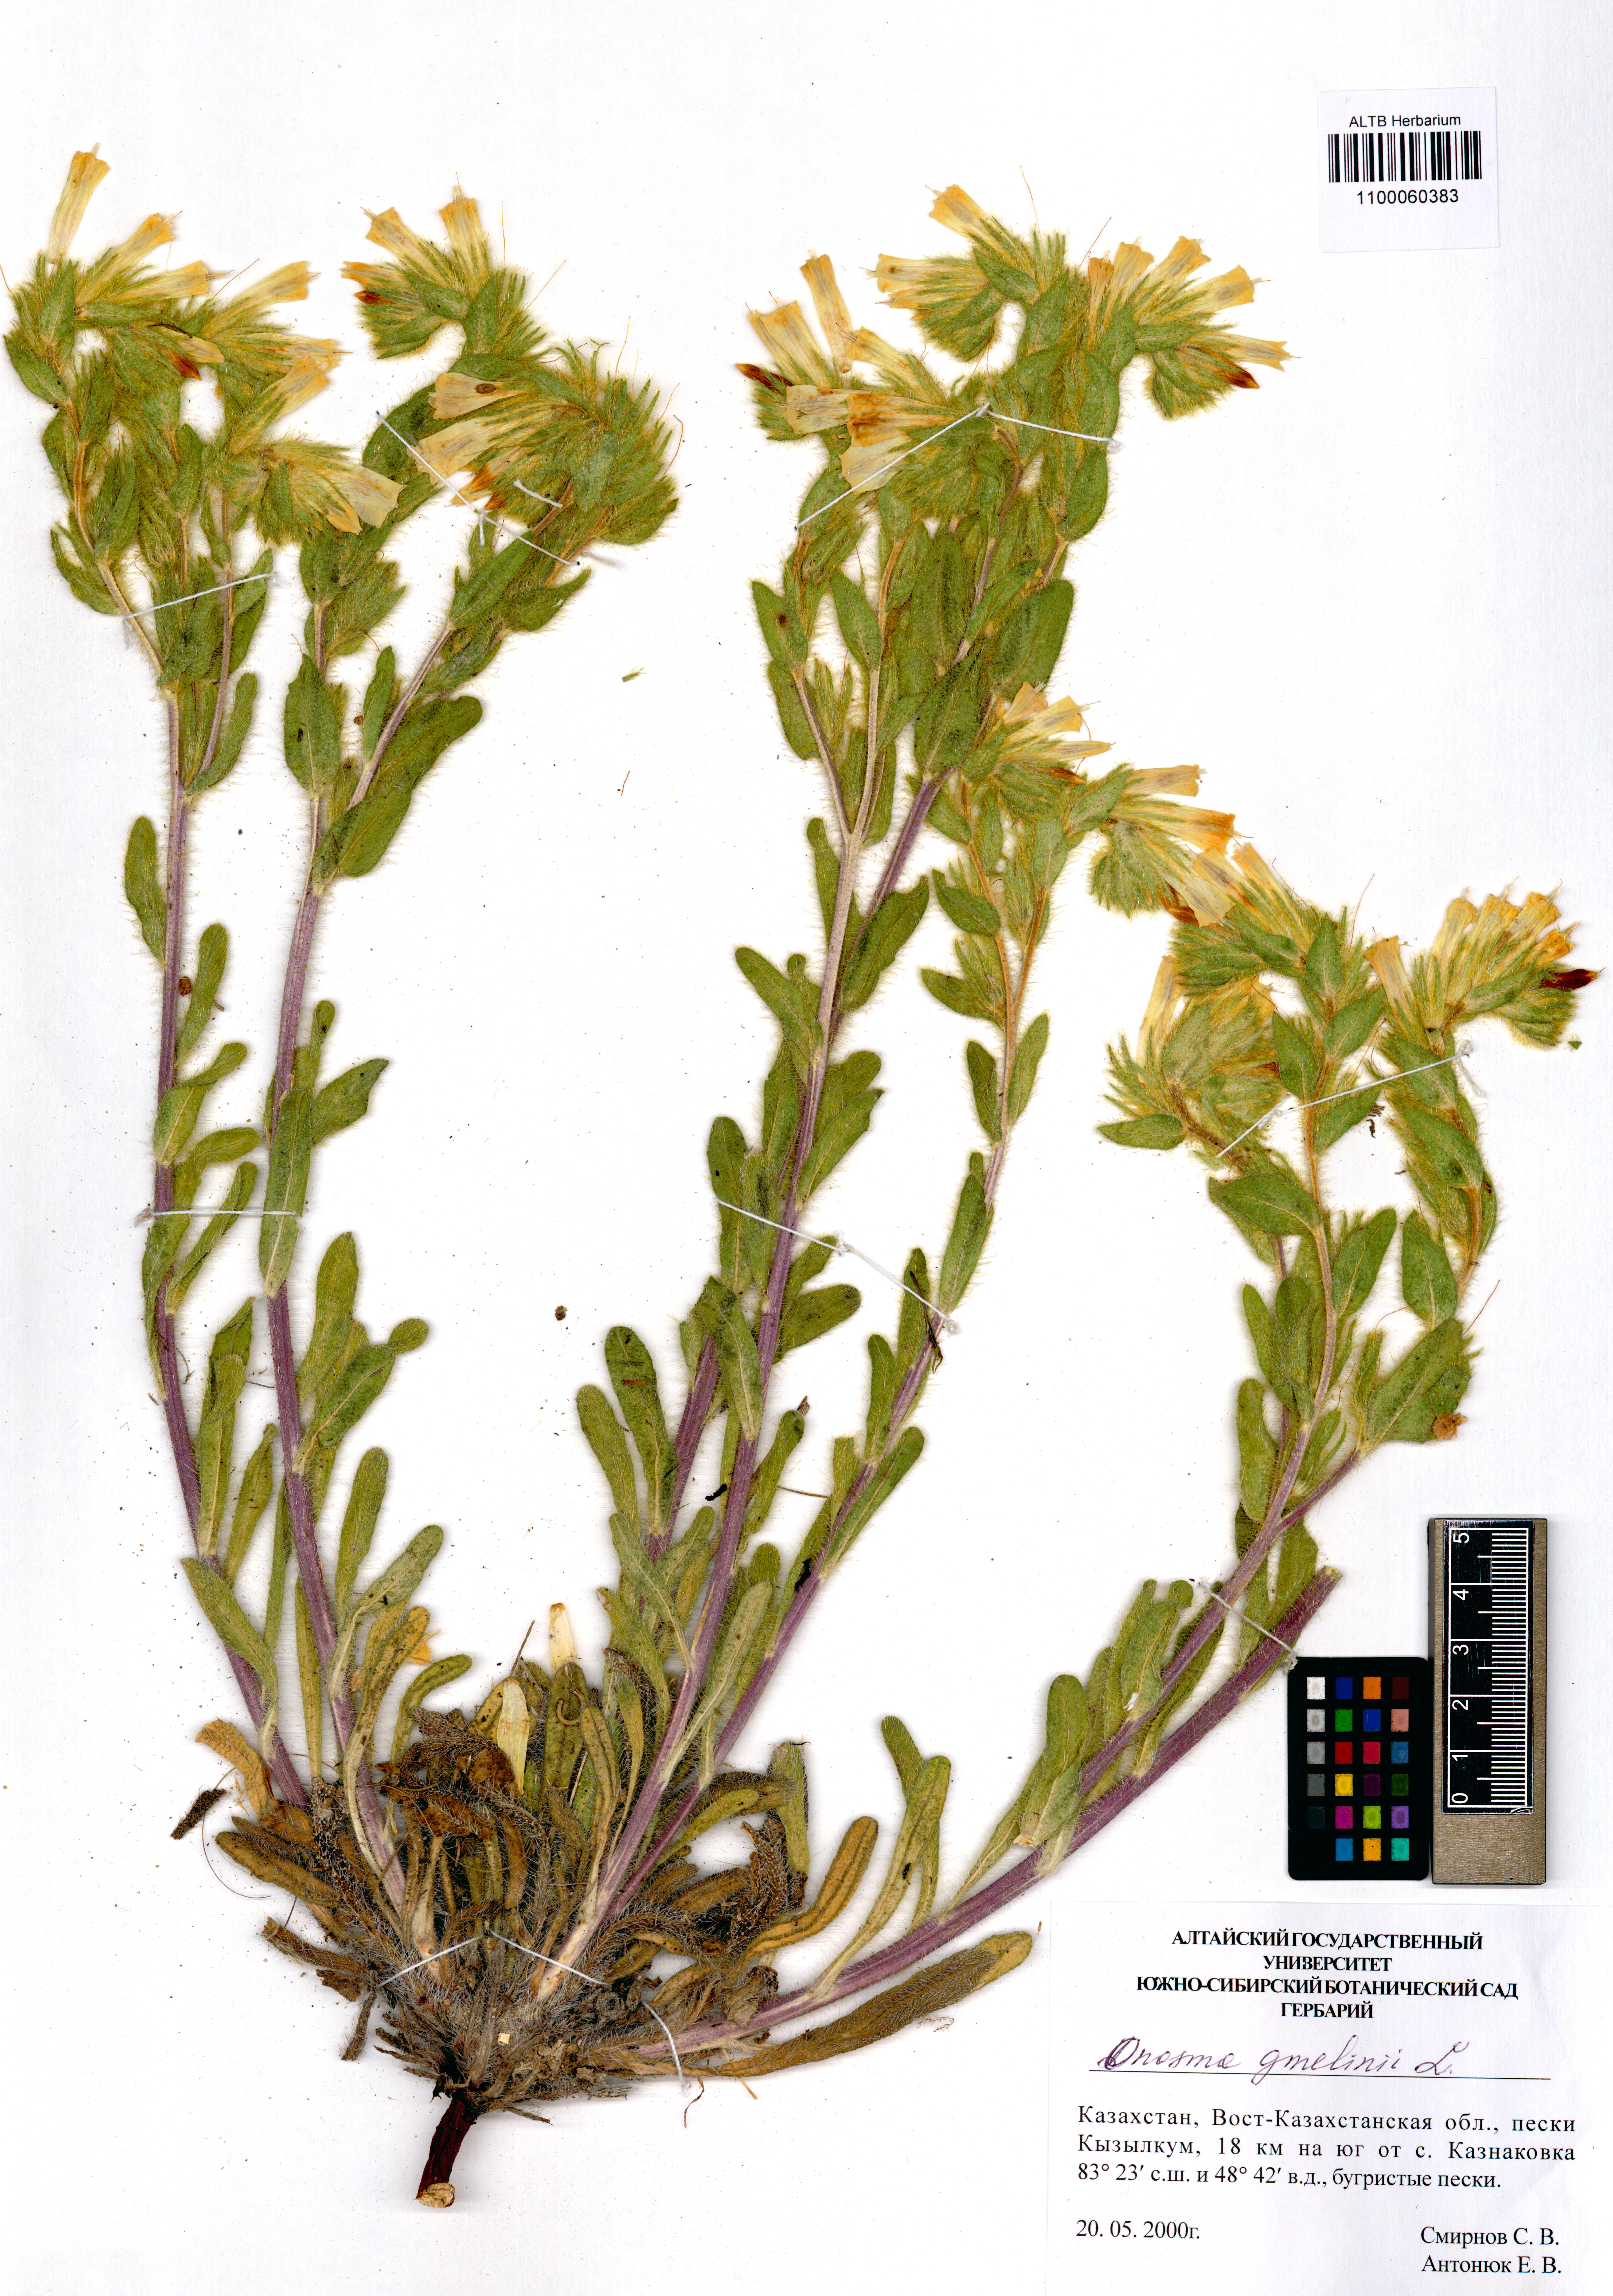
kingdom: Plantae
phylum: Tracheophyta
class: Magnoliopsida
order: Boraginales
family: Boraginaceae
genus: Onosma
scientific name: Onosma gmelinii
